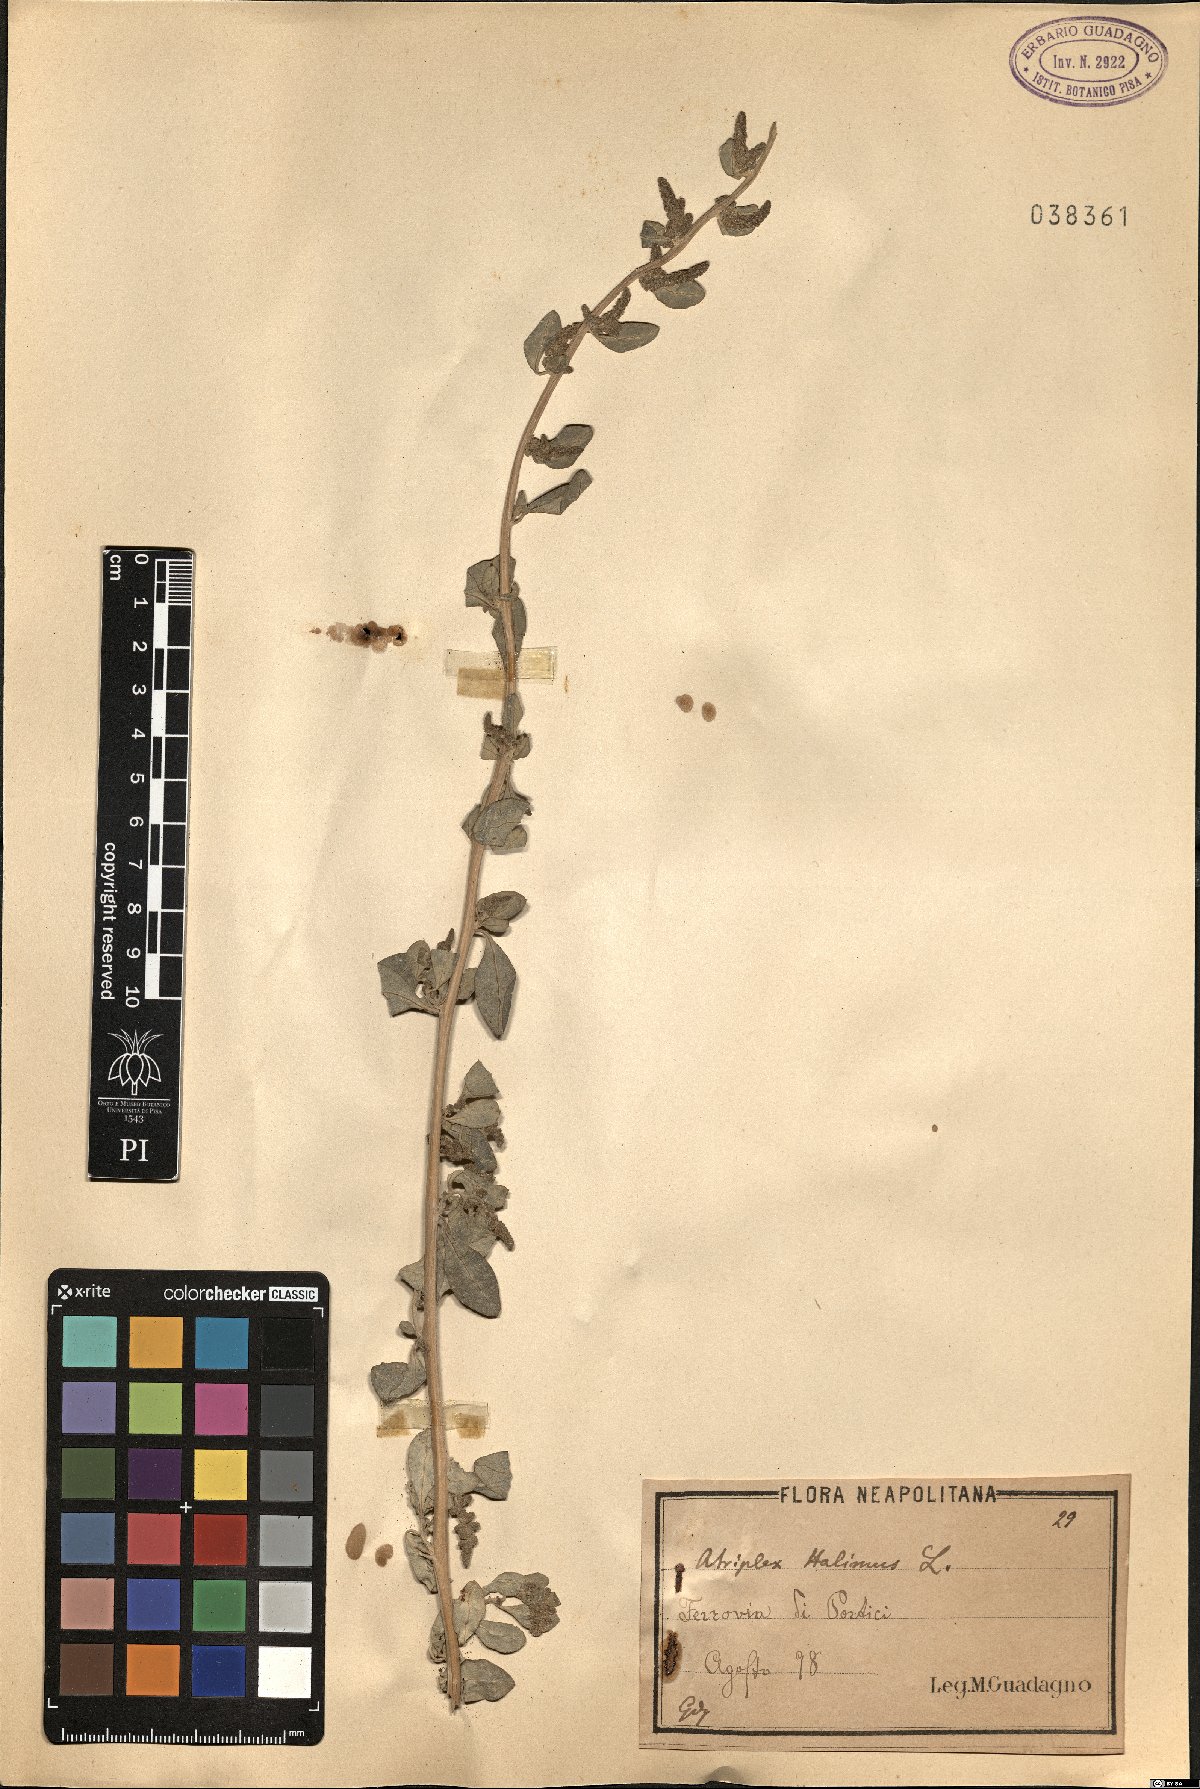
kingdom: Plantae
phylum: Tracheophyta
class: Magnoliopsida
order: Caryophyllales
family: Amaranthaceae
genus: Atriplex
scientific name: Atriplex halimus
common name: Shrubby orache
